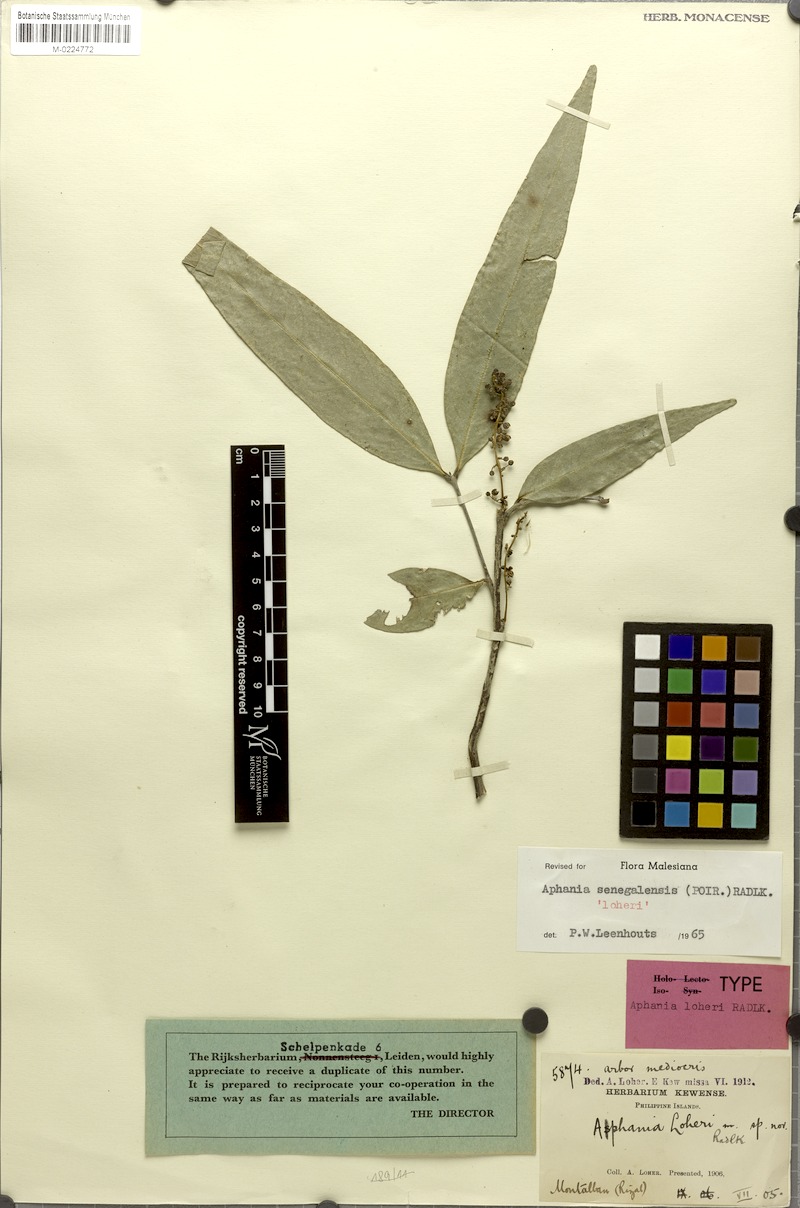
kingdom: Plantae
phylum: Tracheophyta
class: Magnoliopsida
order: Sapindales
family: Sapindaceae
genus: Lepisanthes
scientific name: Lepisanthes senegalensis
